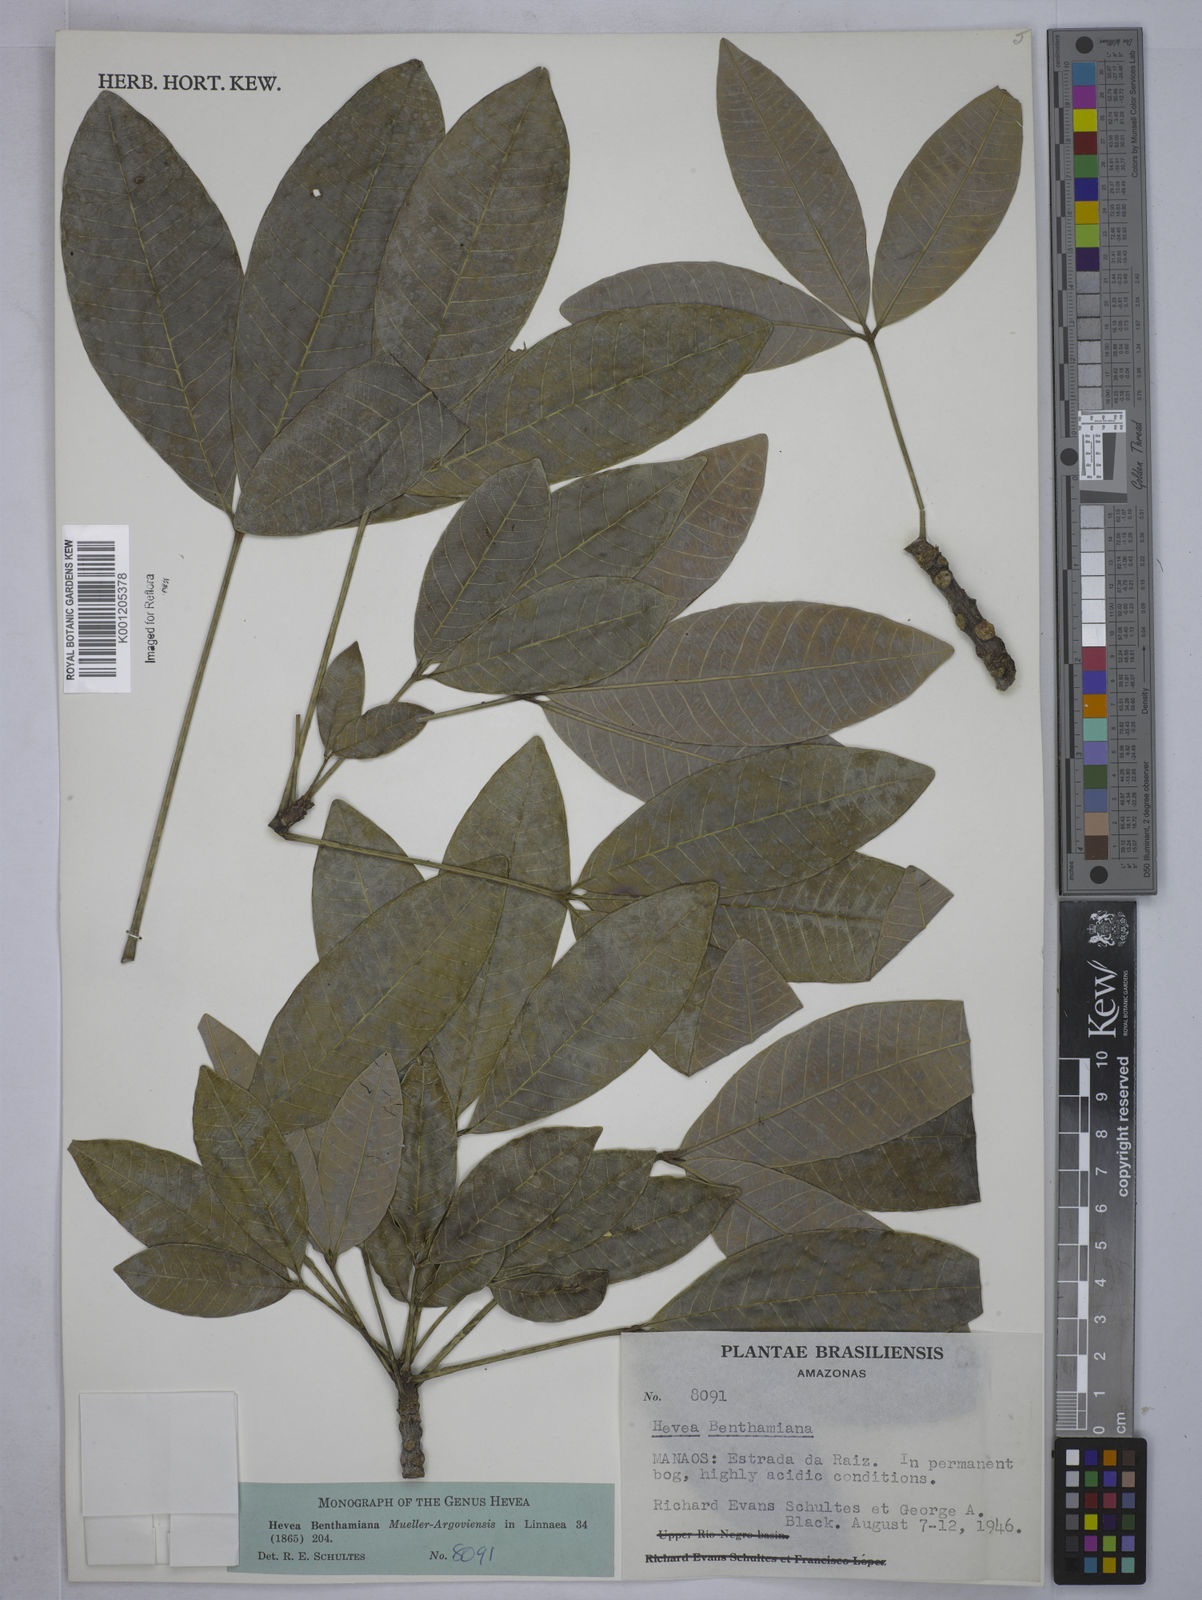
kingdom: Plantae
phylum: Tracheophyta
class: Magnoliopsida
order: Malpighiales
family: Euphorbiaceae
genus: Hevea
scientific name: Hevea
